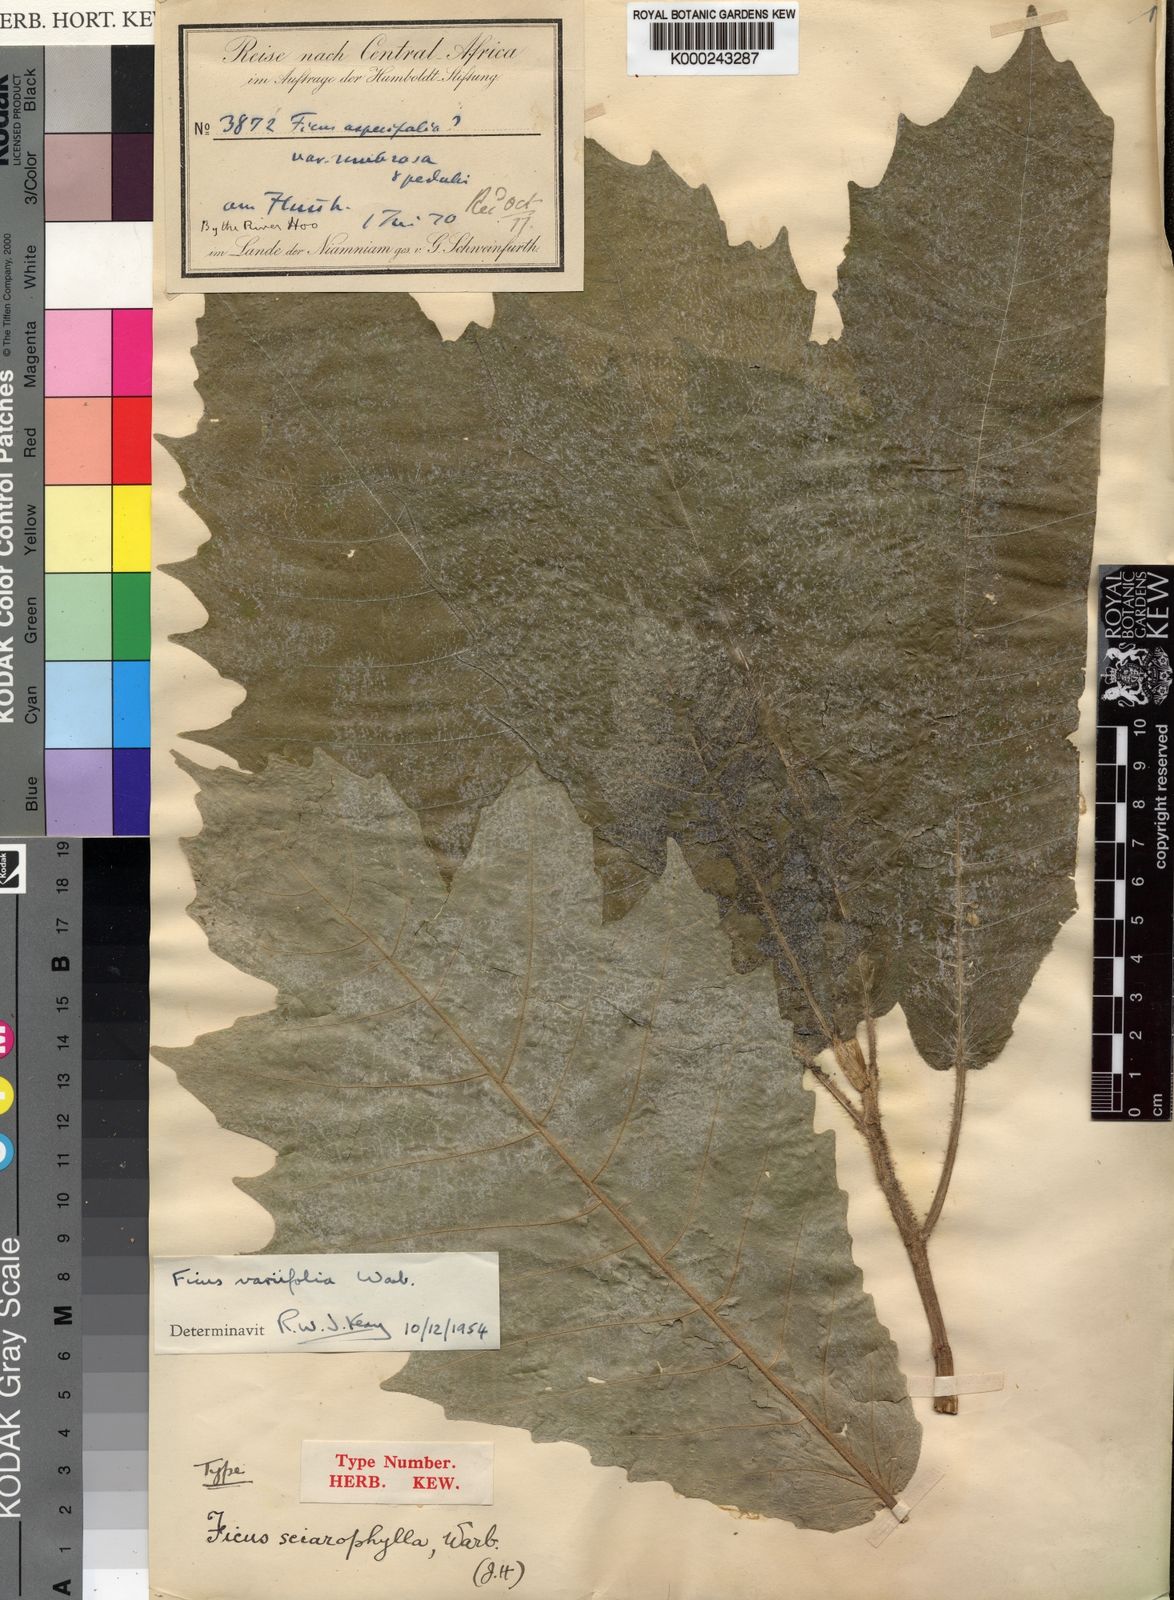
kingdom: Plantae
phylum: Tracheophyta
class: Magnoliopsida
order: Rosales
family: Moraceae
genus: Ficus
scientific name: Ficus variifolia
